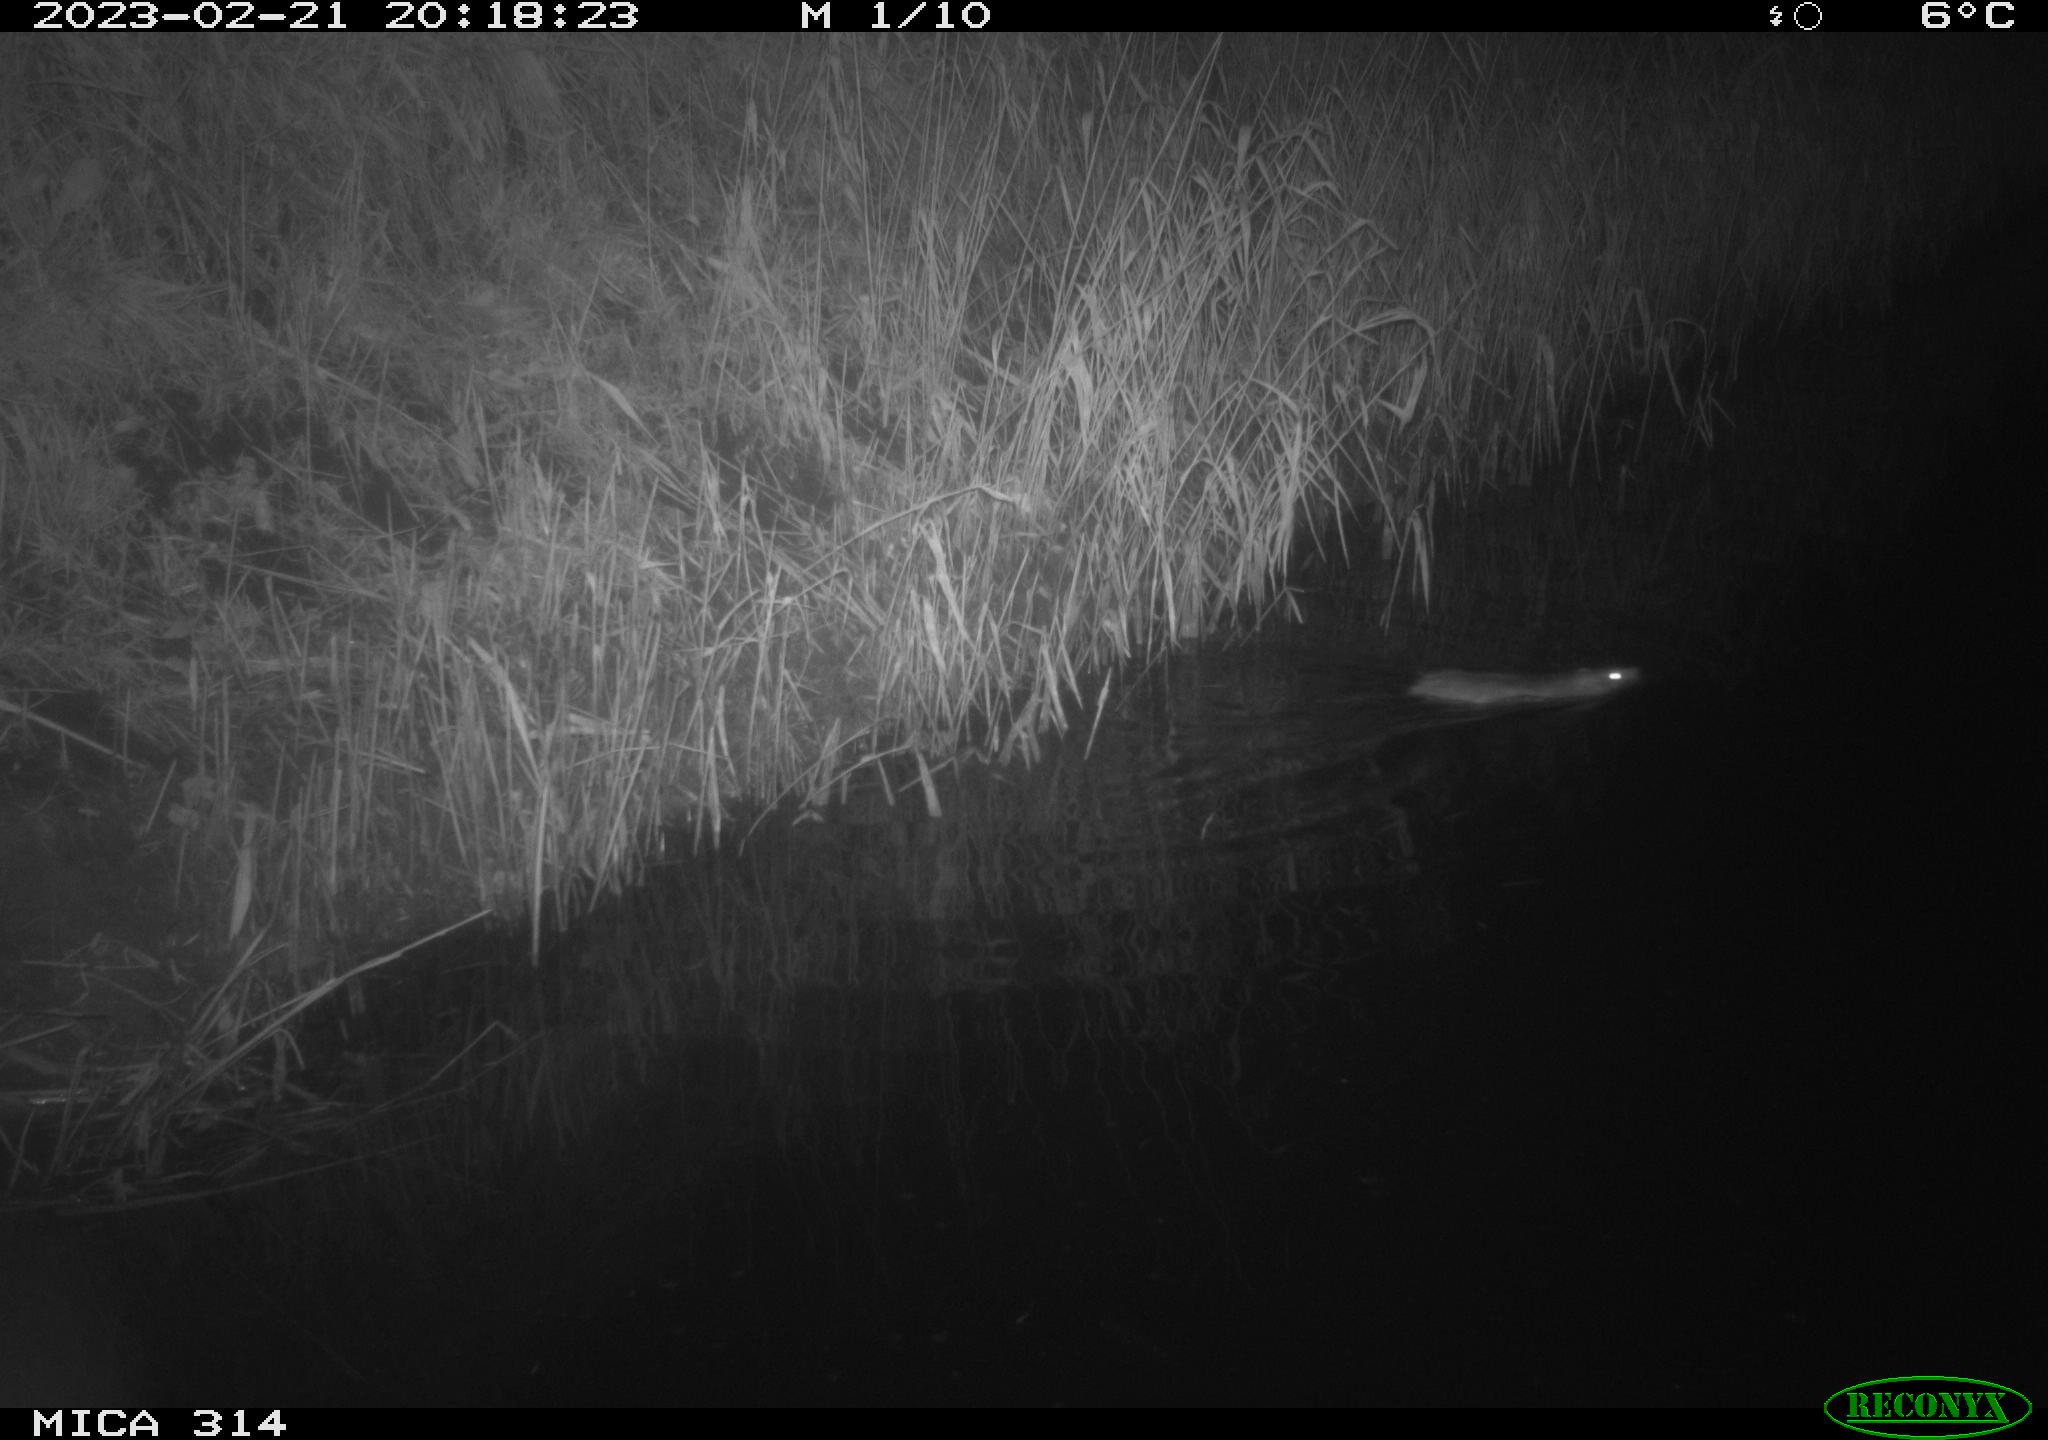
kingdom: Animalia
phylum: Chordata
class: Mammalia
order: Rodentia
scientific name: Rodentia
